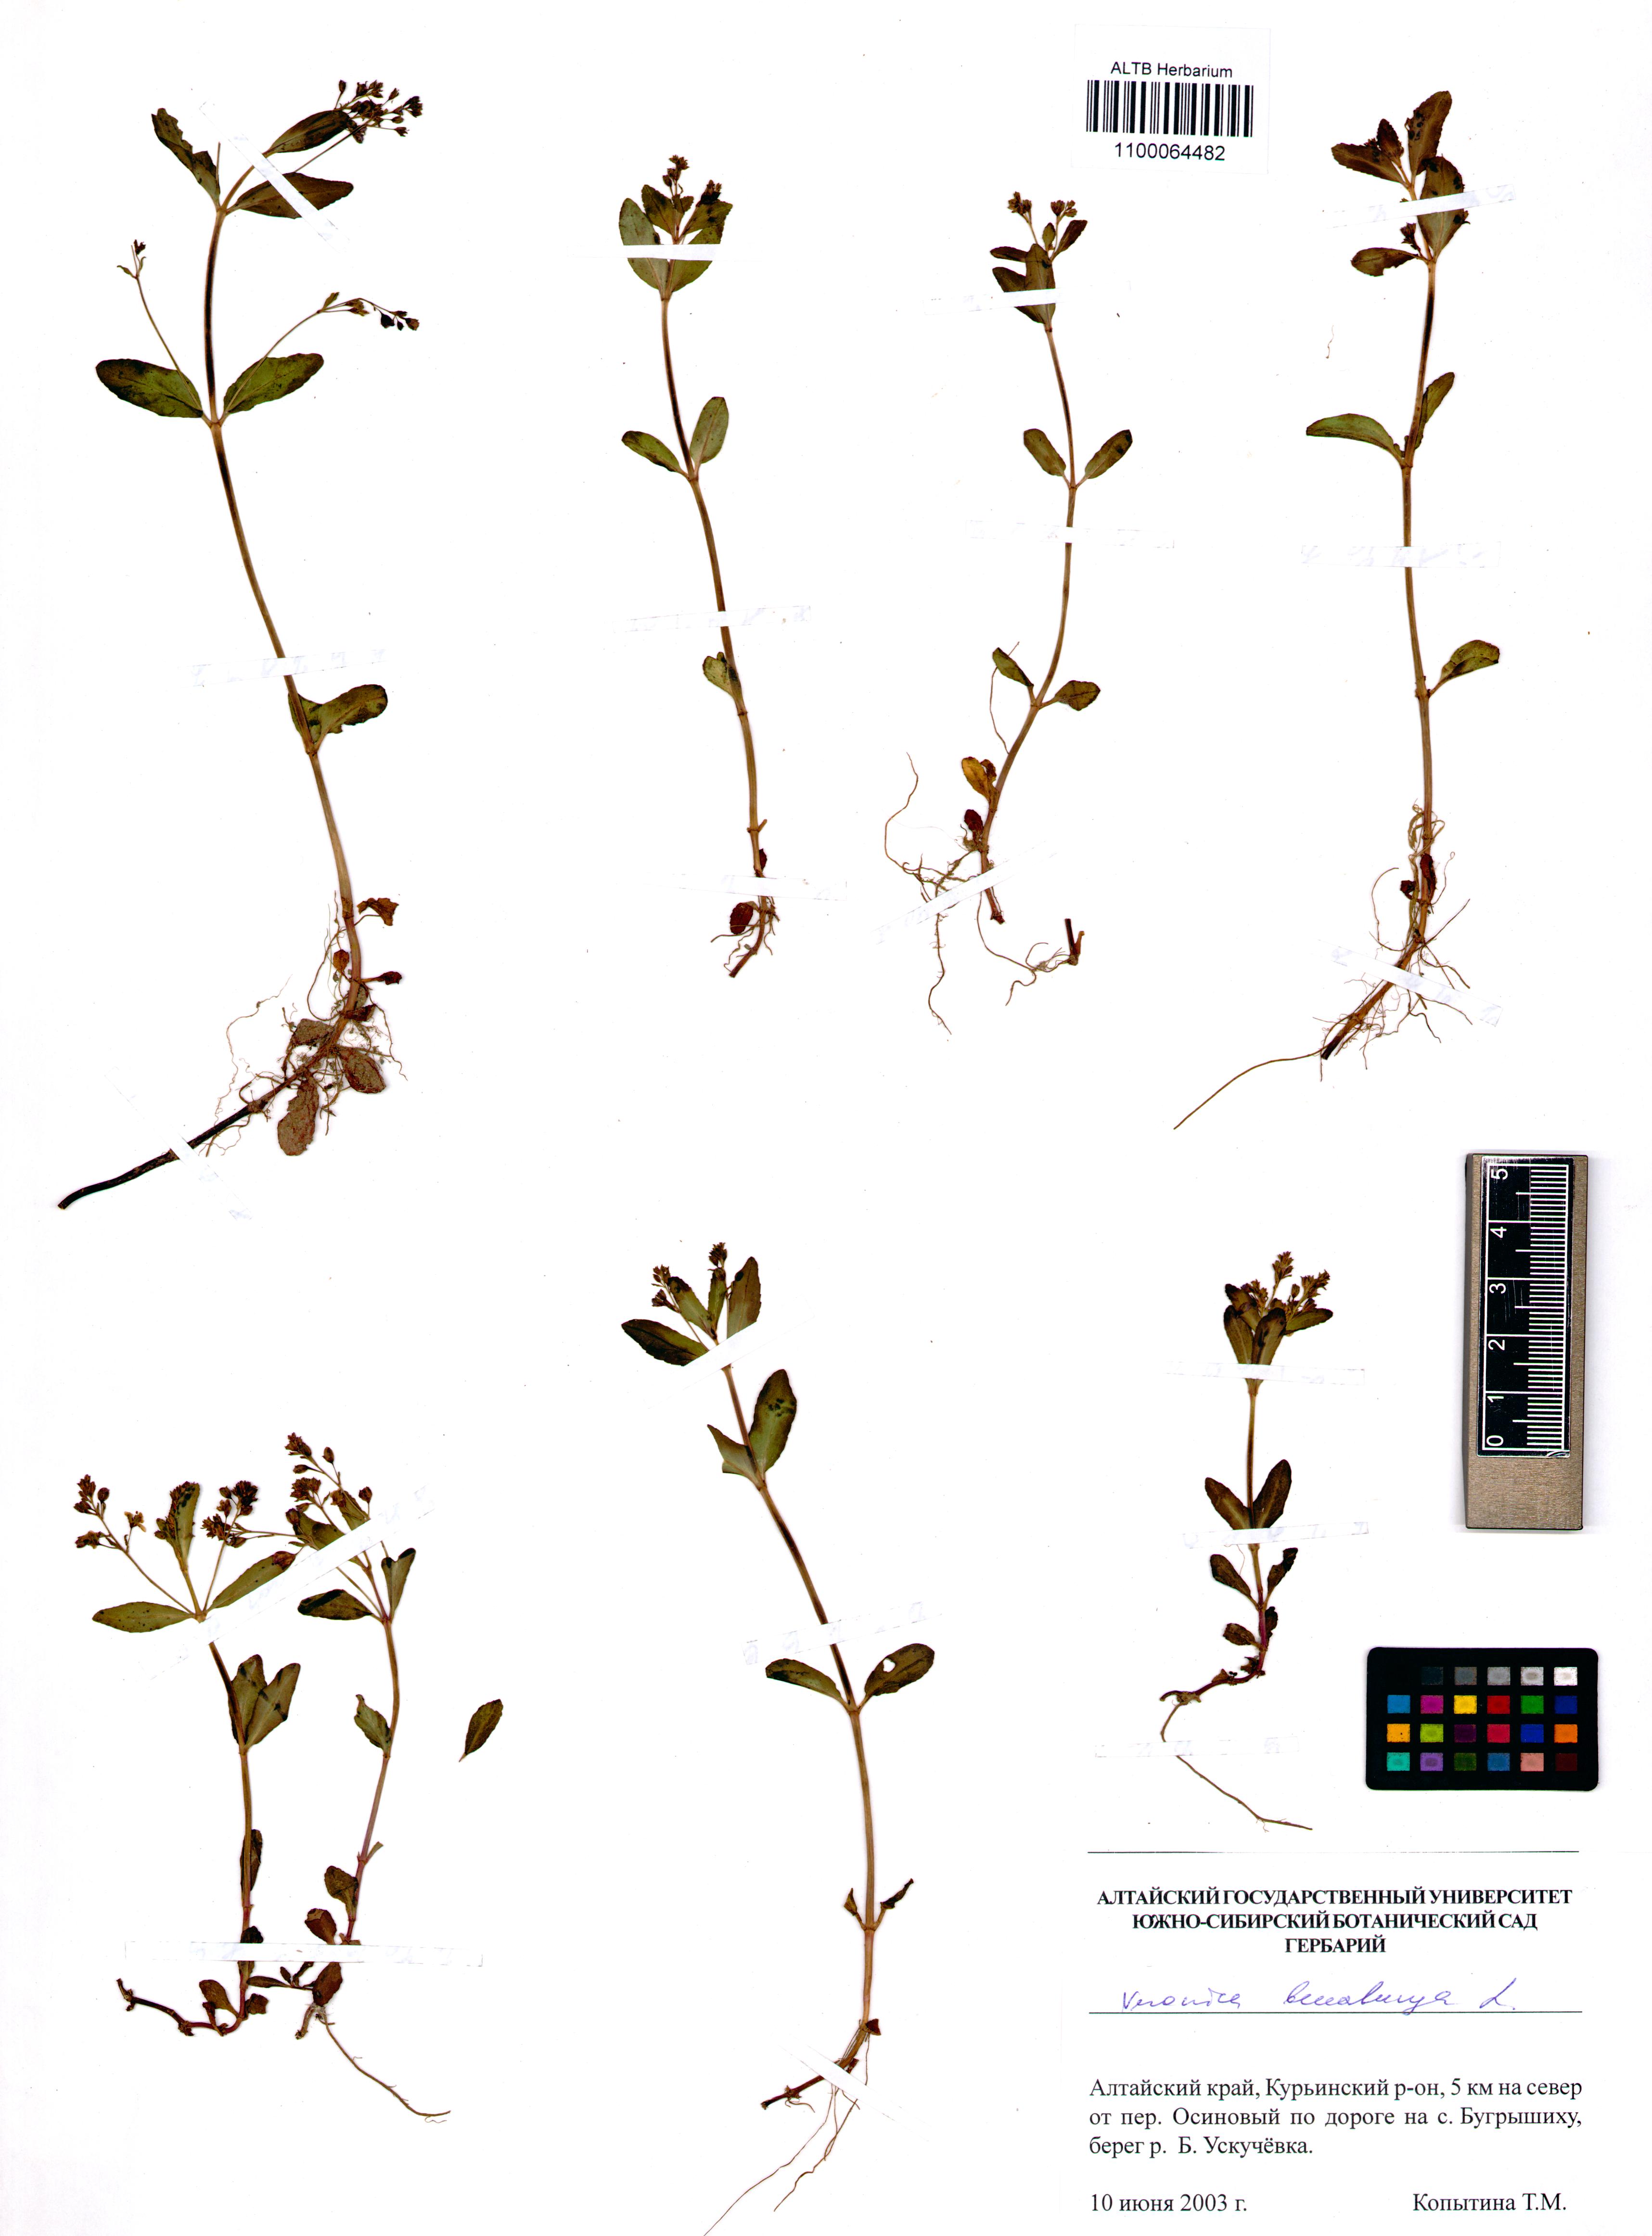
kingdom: Plantae
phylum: Tracheophyta
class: Magnoliopsida
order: Lamiales
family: Plantaginaceae
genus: Veronica
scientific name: Veronica beccabunga
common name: Brooklime
